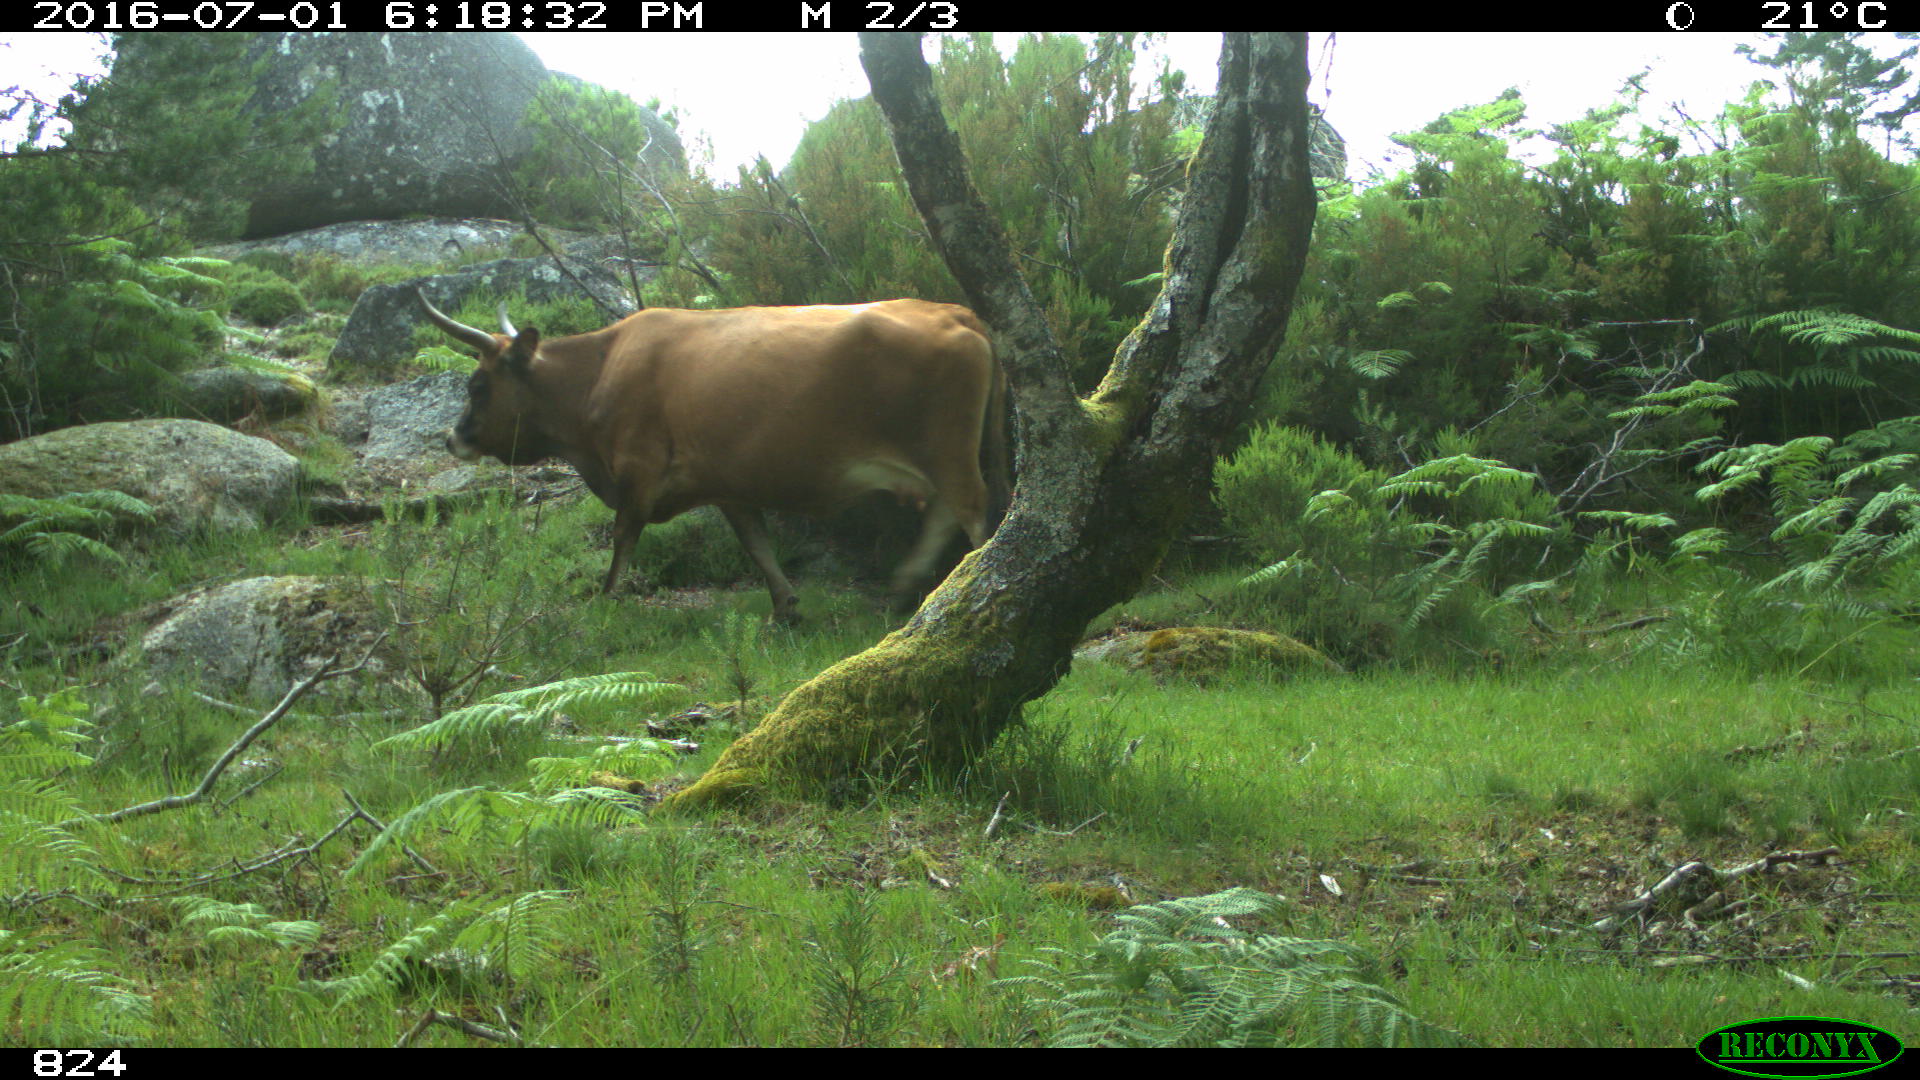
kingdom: Animalia
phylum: Chordata
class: Mammalia
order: Artiodactyla
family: Bovidae
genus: Bos
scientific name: Bos taurus
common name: Domesticated cattle
